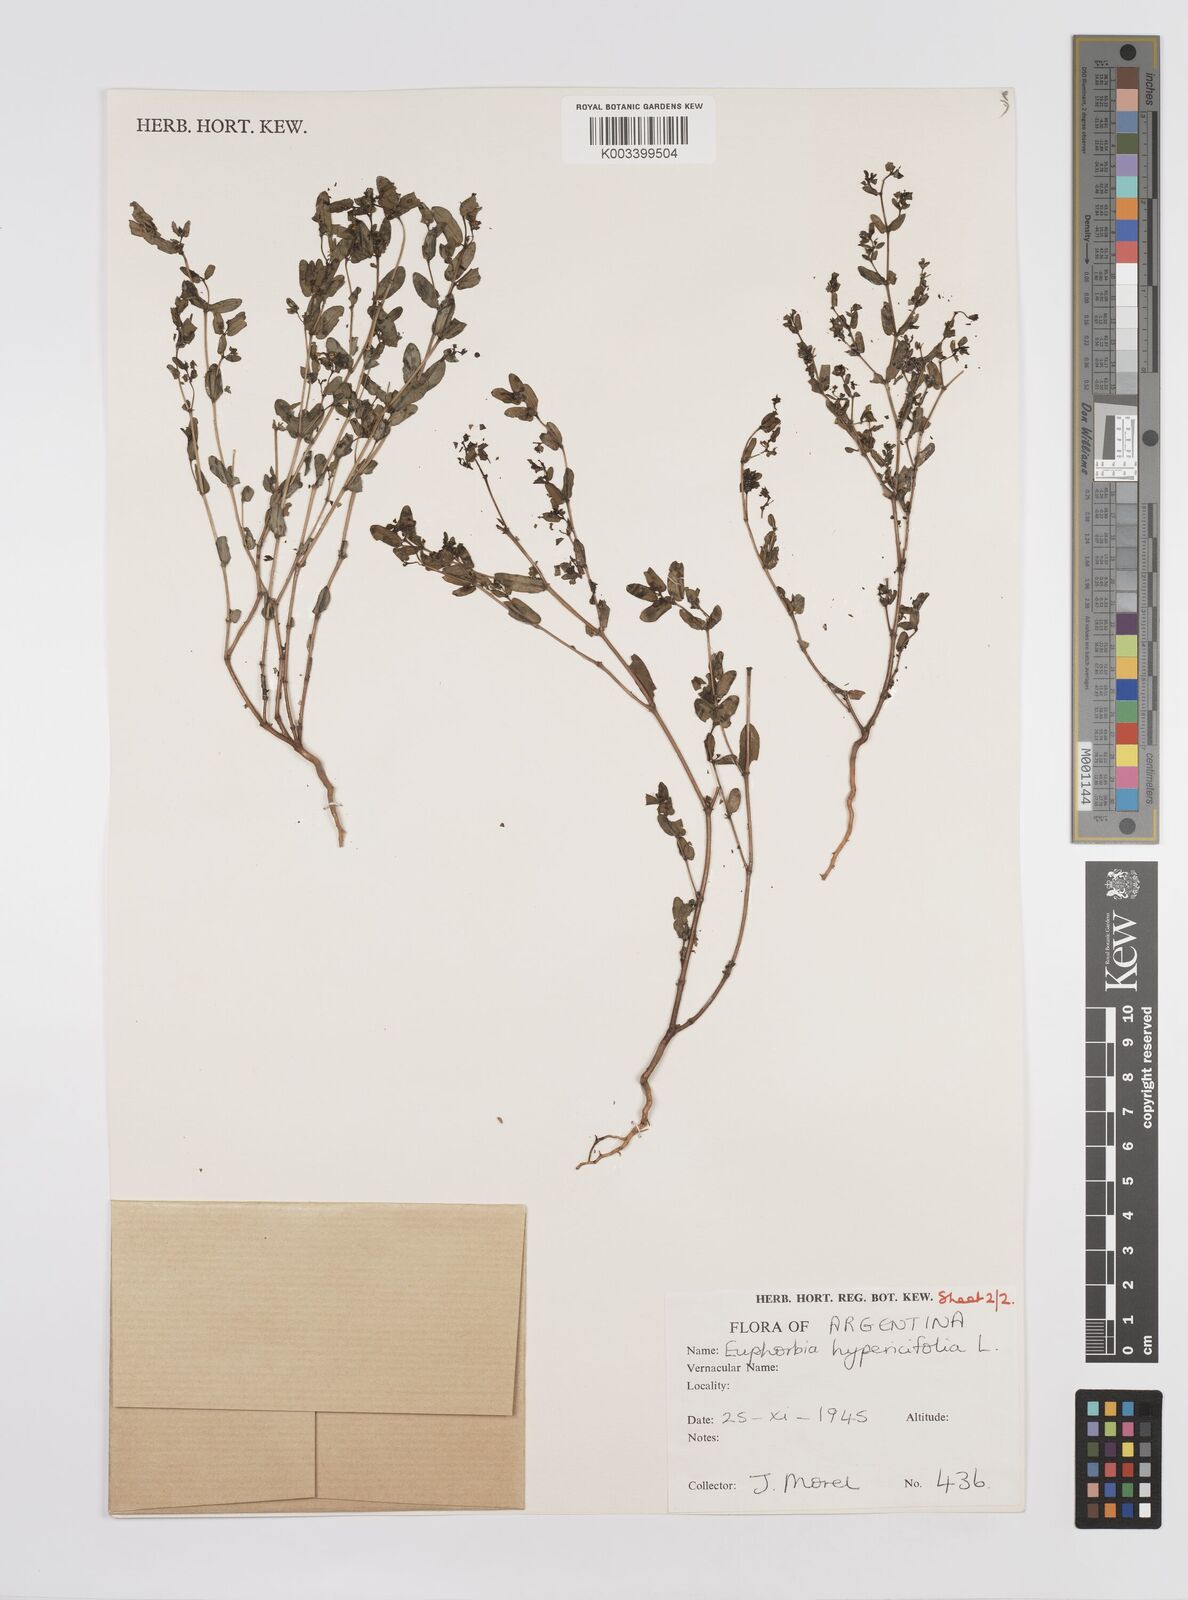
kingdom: Plantae
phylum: Tracheophyta
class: Magnoliopsida
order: Malpighiales
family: Euphorbiaceae
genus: Euphorbia
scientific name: Euphorbia hypericifolia
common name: Graceful sandmat
